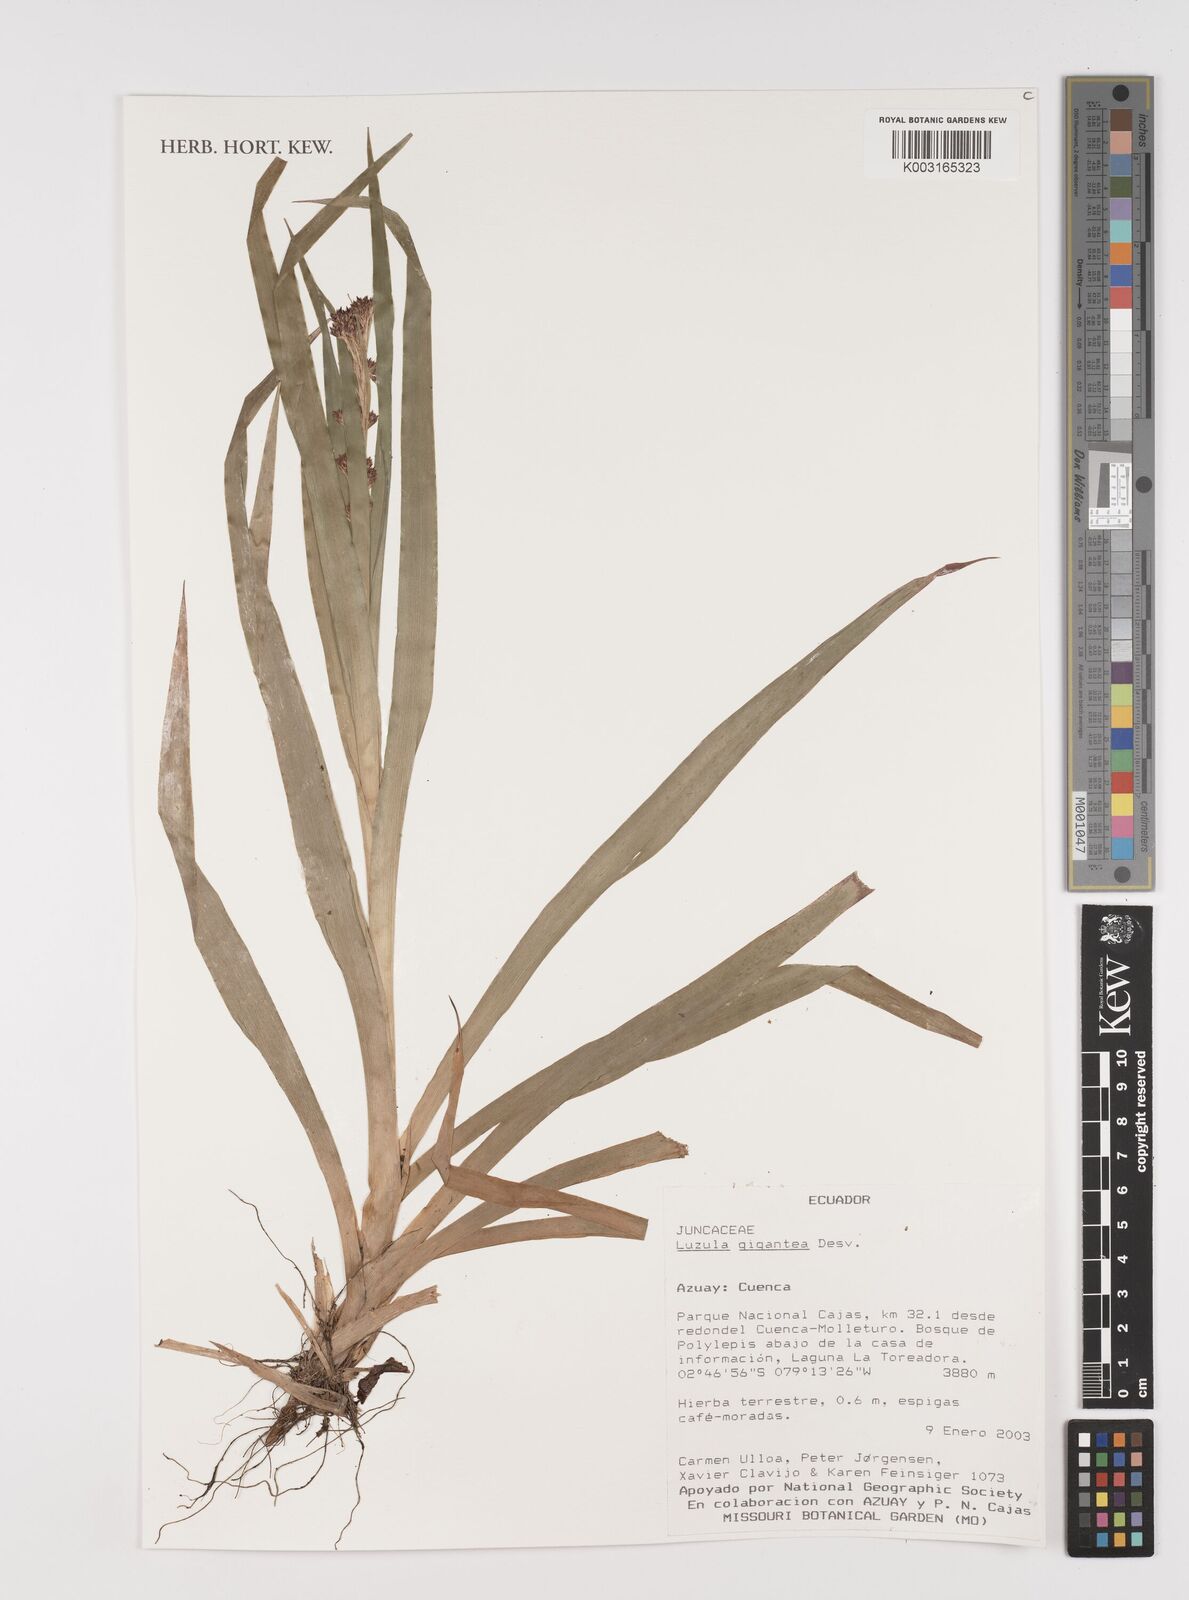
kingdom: Plantae
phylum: Tracheophyta
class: Liliopsida
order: Poales
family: Juncaceae
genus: Luzula
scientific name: Luzula gigantea
